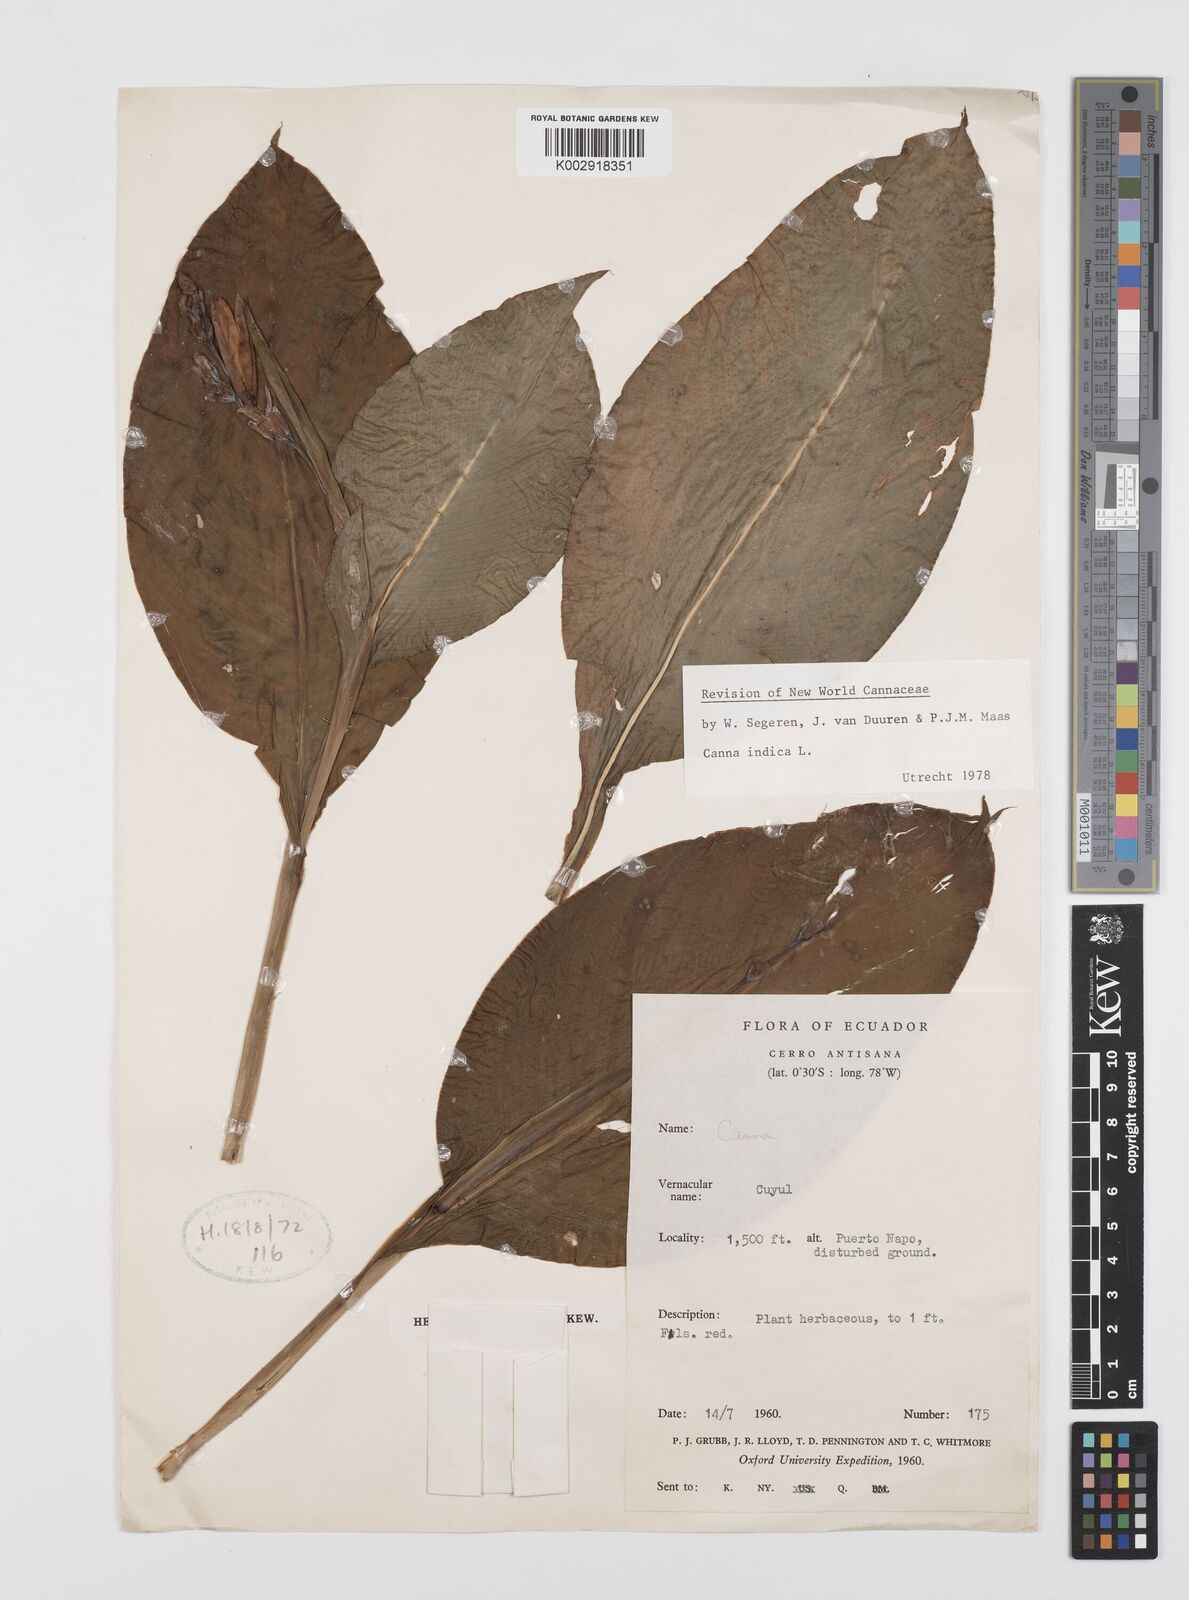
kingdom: Plantae
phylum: Tracheophyta
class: Liliopsida
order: Zingiberales
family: Cannaceae
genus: Canna
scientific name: Canna indica
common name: Indian shot
